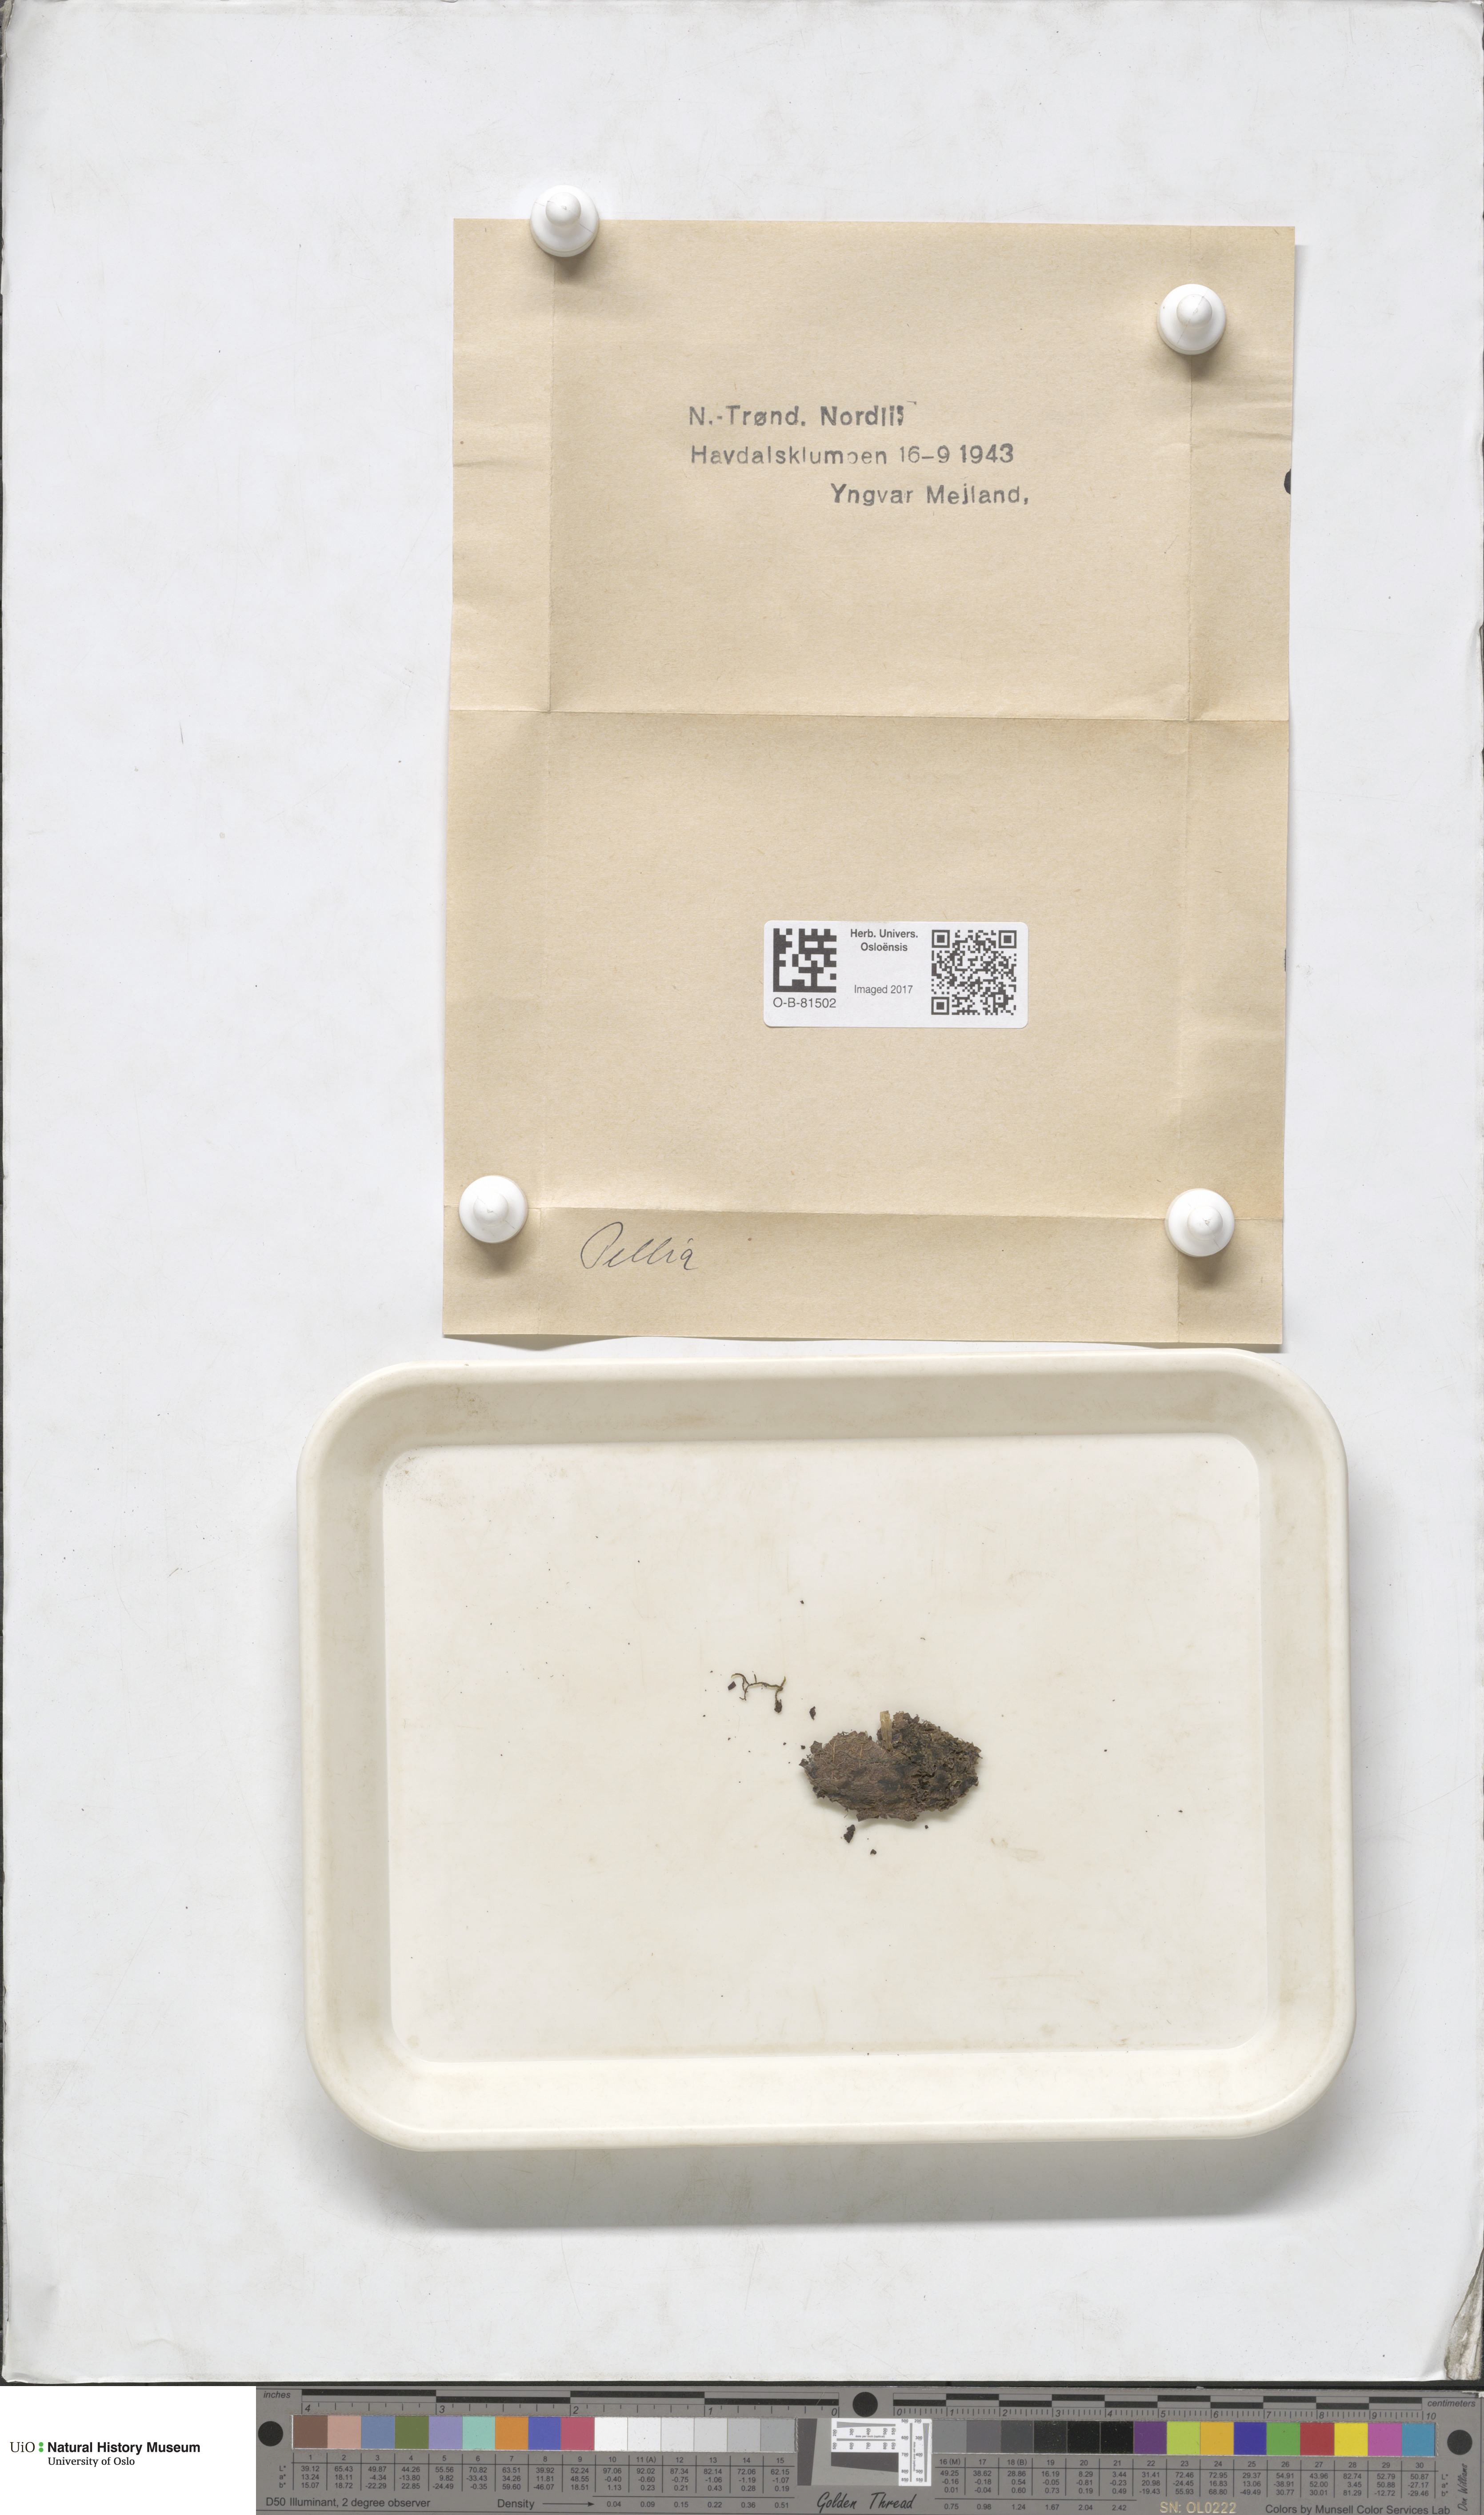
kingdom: Plantae
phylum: Marchantiophyta
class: Jungermanniopsida
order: Pelliales
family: Pelliaceae
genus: Pellia
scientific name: Pellia
